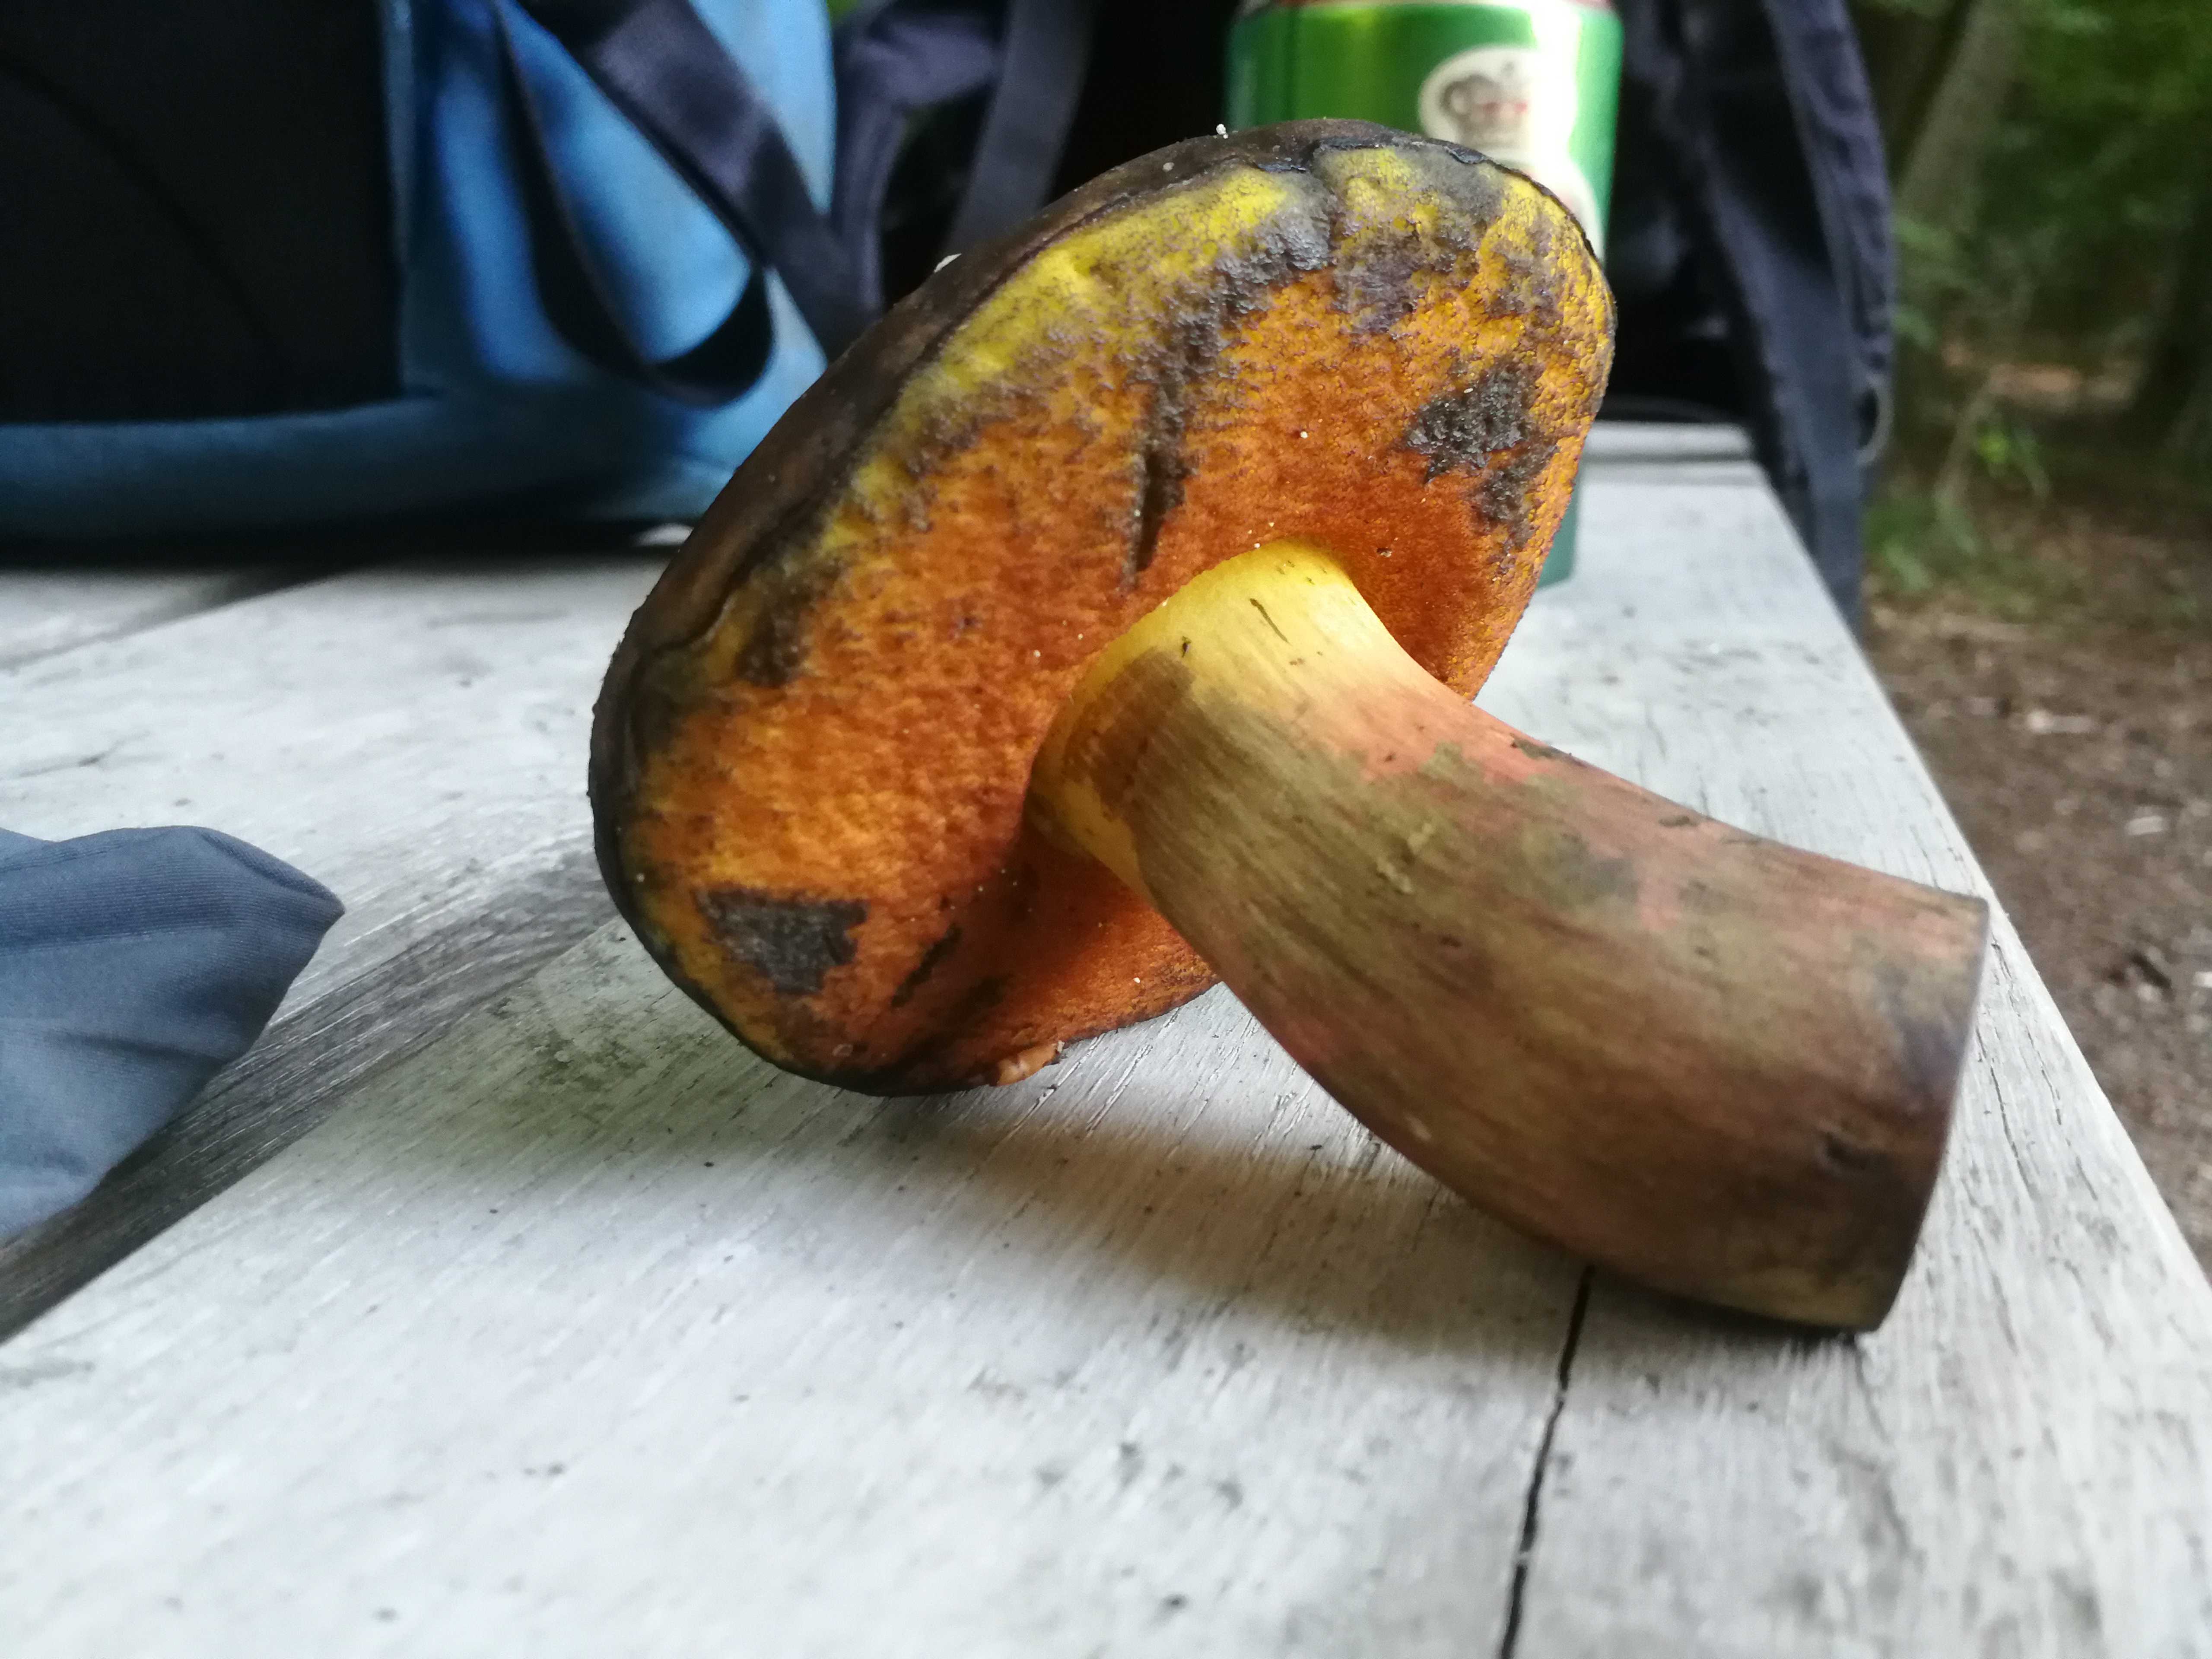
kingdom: Fungi
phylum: Basidiomycota
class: Agaricomycetes
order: Boletales
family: Boletaceae
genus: Neoboletus
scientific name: Neoboletus xanthopus
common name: finprikket indigorørhat
